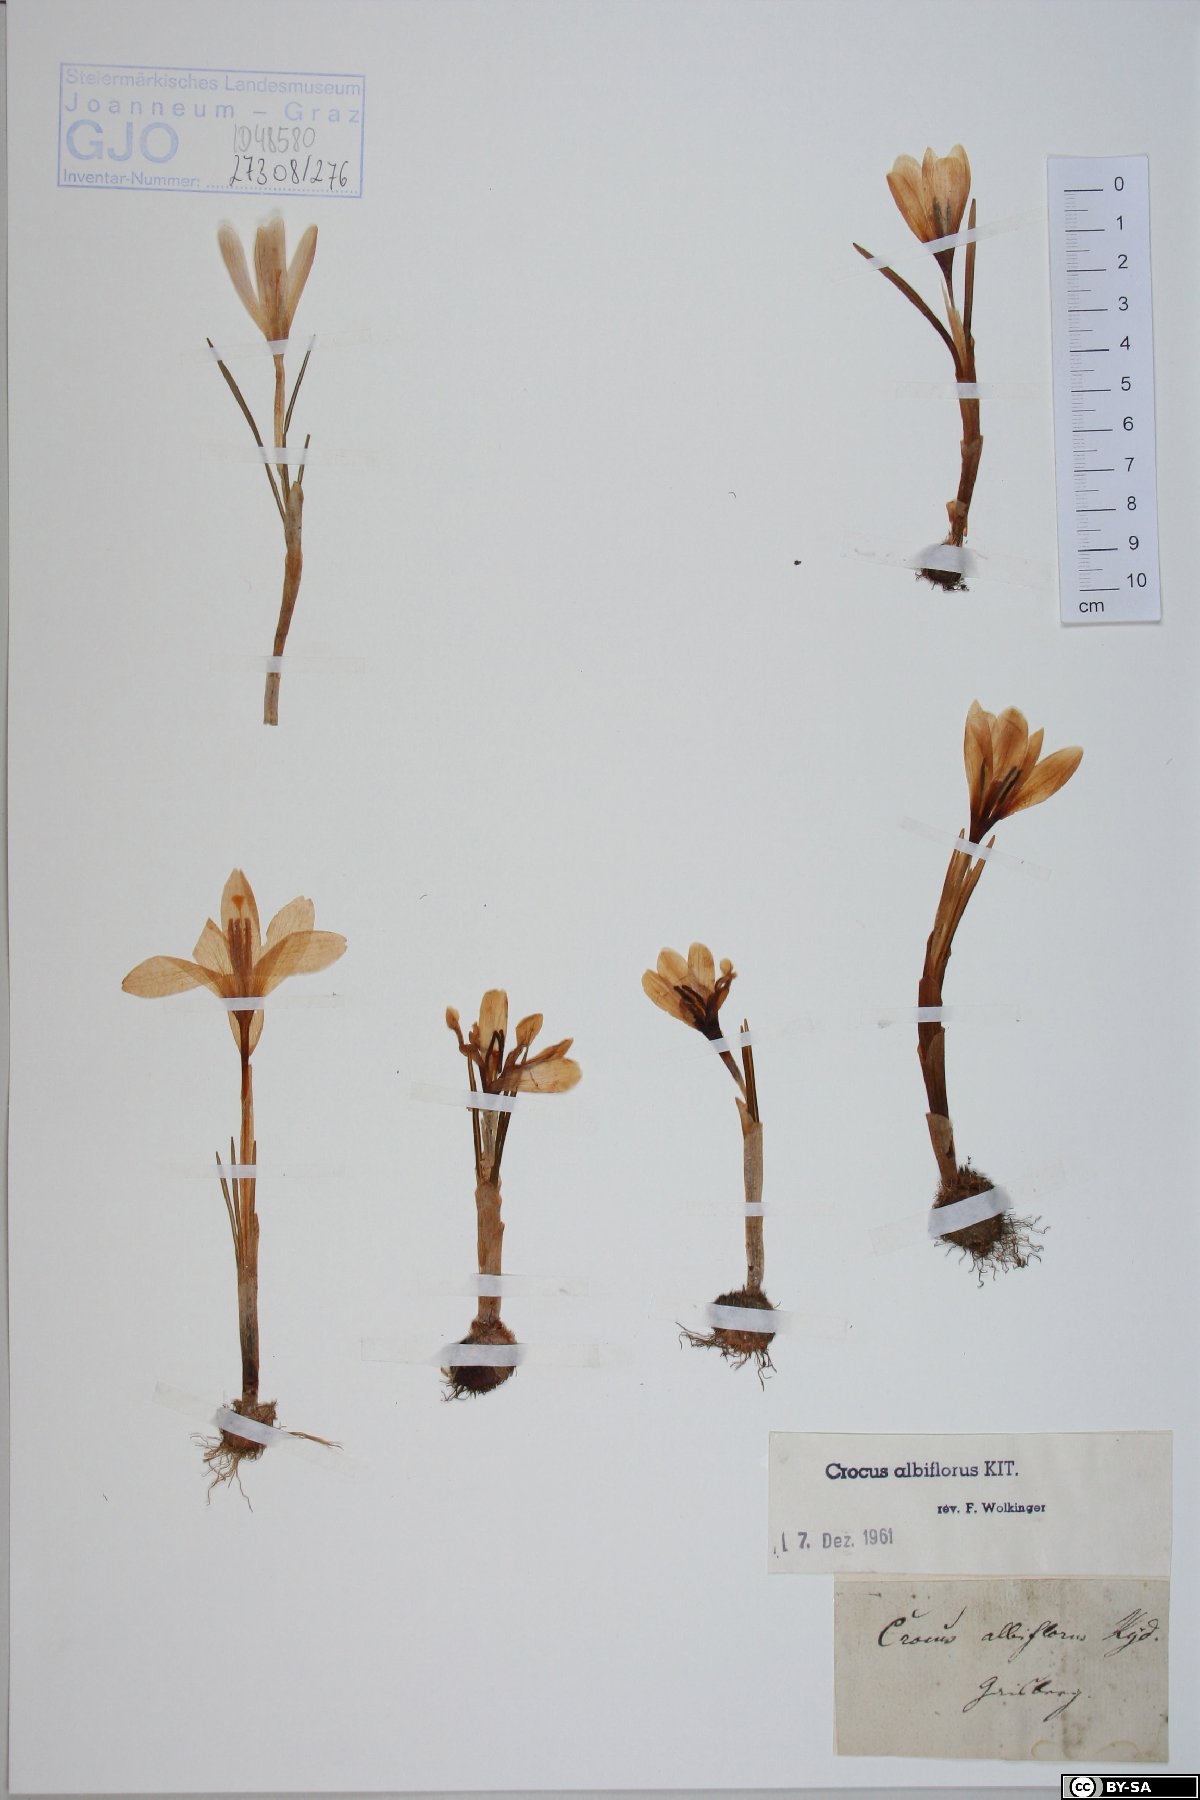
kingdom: Plantae
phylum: Tracheophyta
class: Liliopsida
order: Asparagales
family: Iridaceae
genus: Crocus
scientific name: Crocus vernus
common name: Spring crocus
